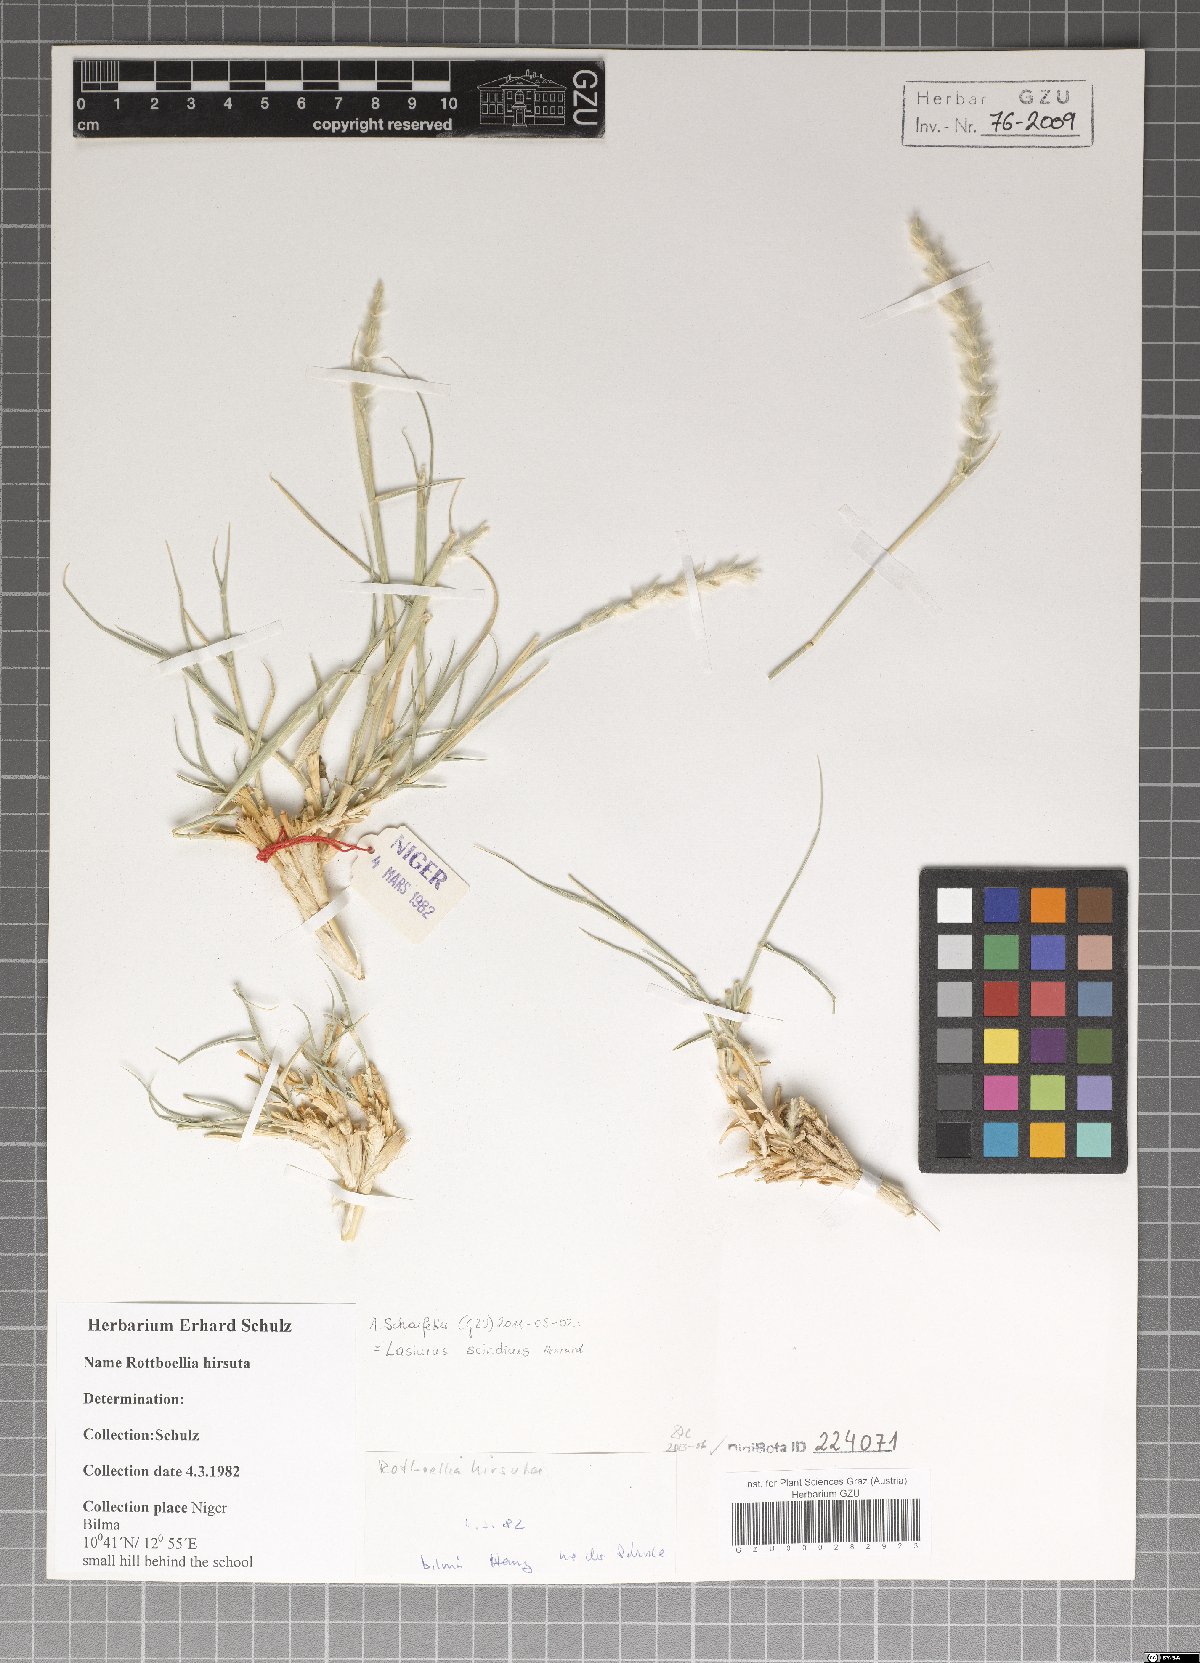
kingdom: Plantae
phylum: Tracheophyta
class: Liliopsida
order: Poales
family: Poaceae
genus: Lasiurus
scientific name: Lasiurus scindicus
